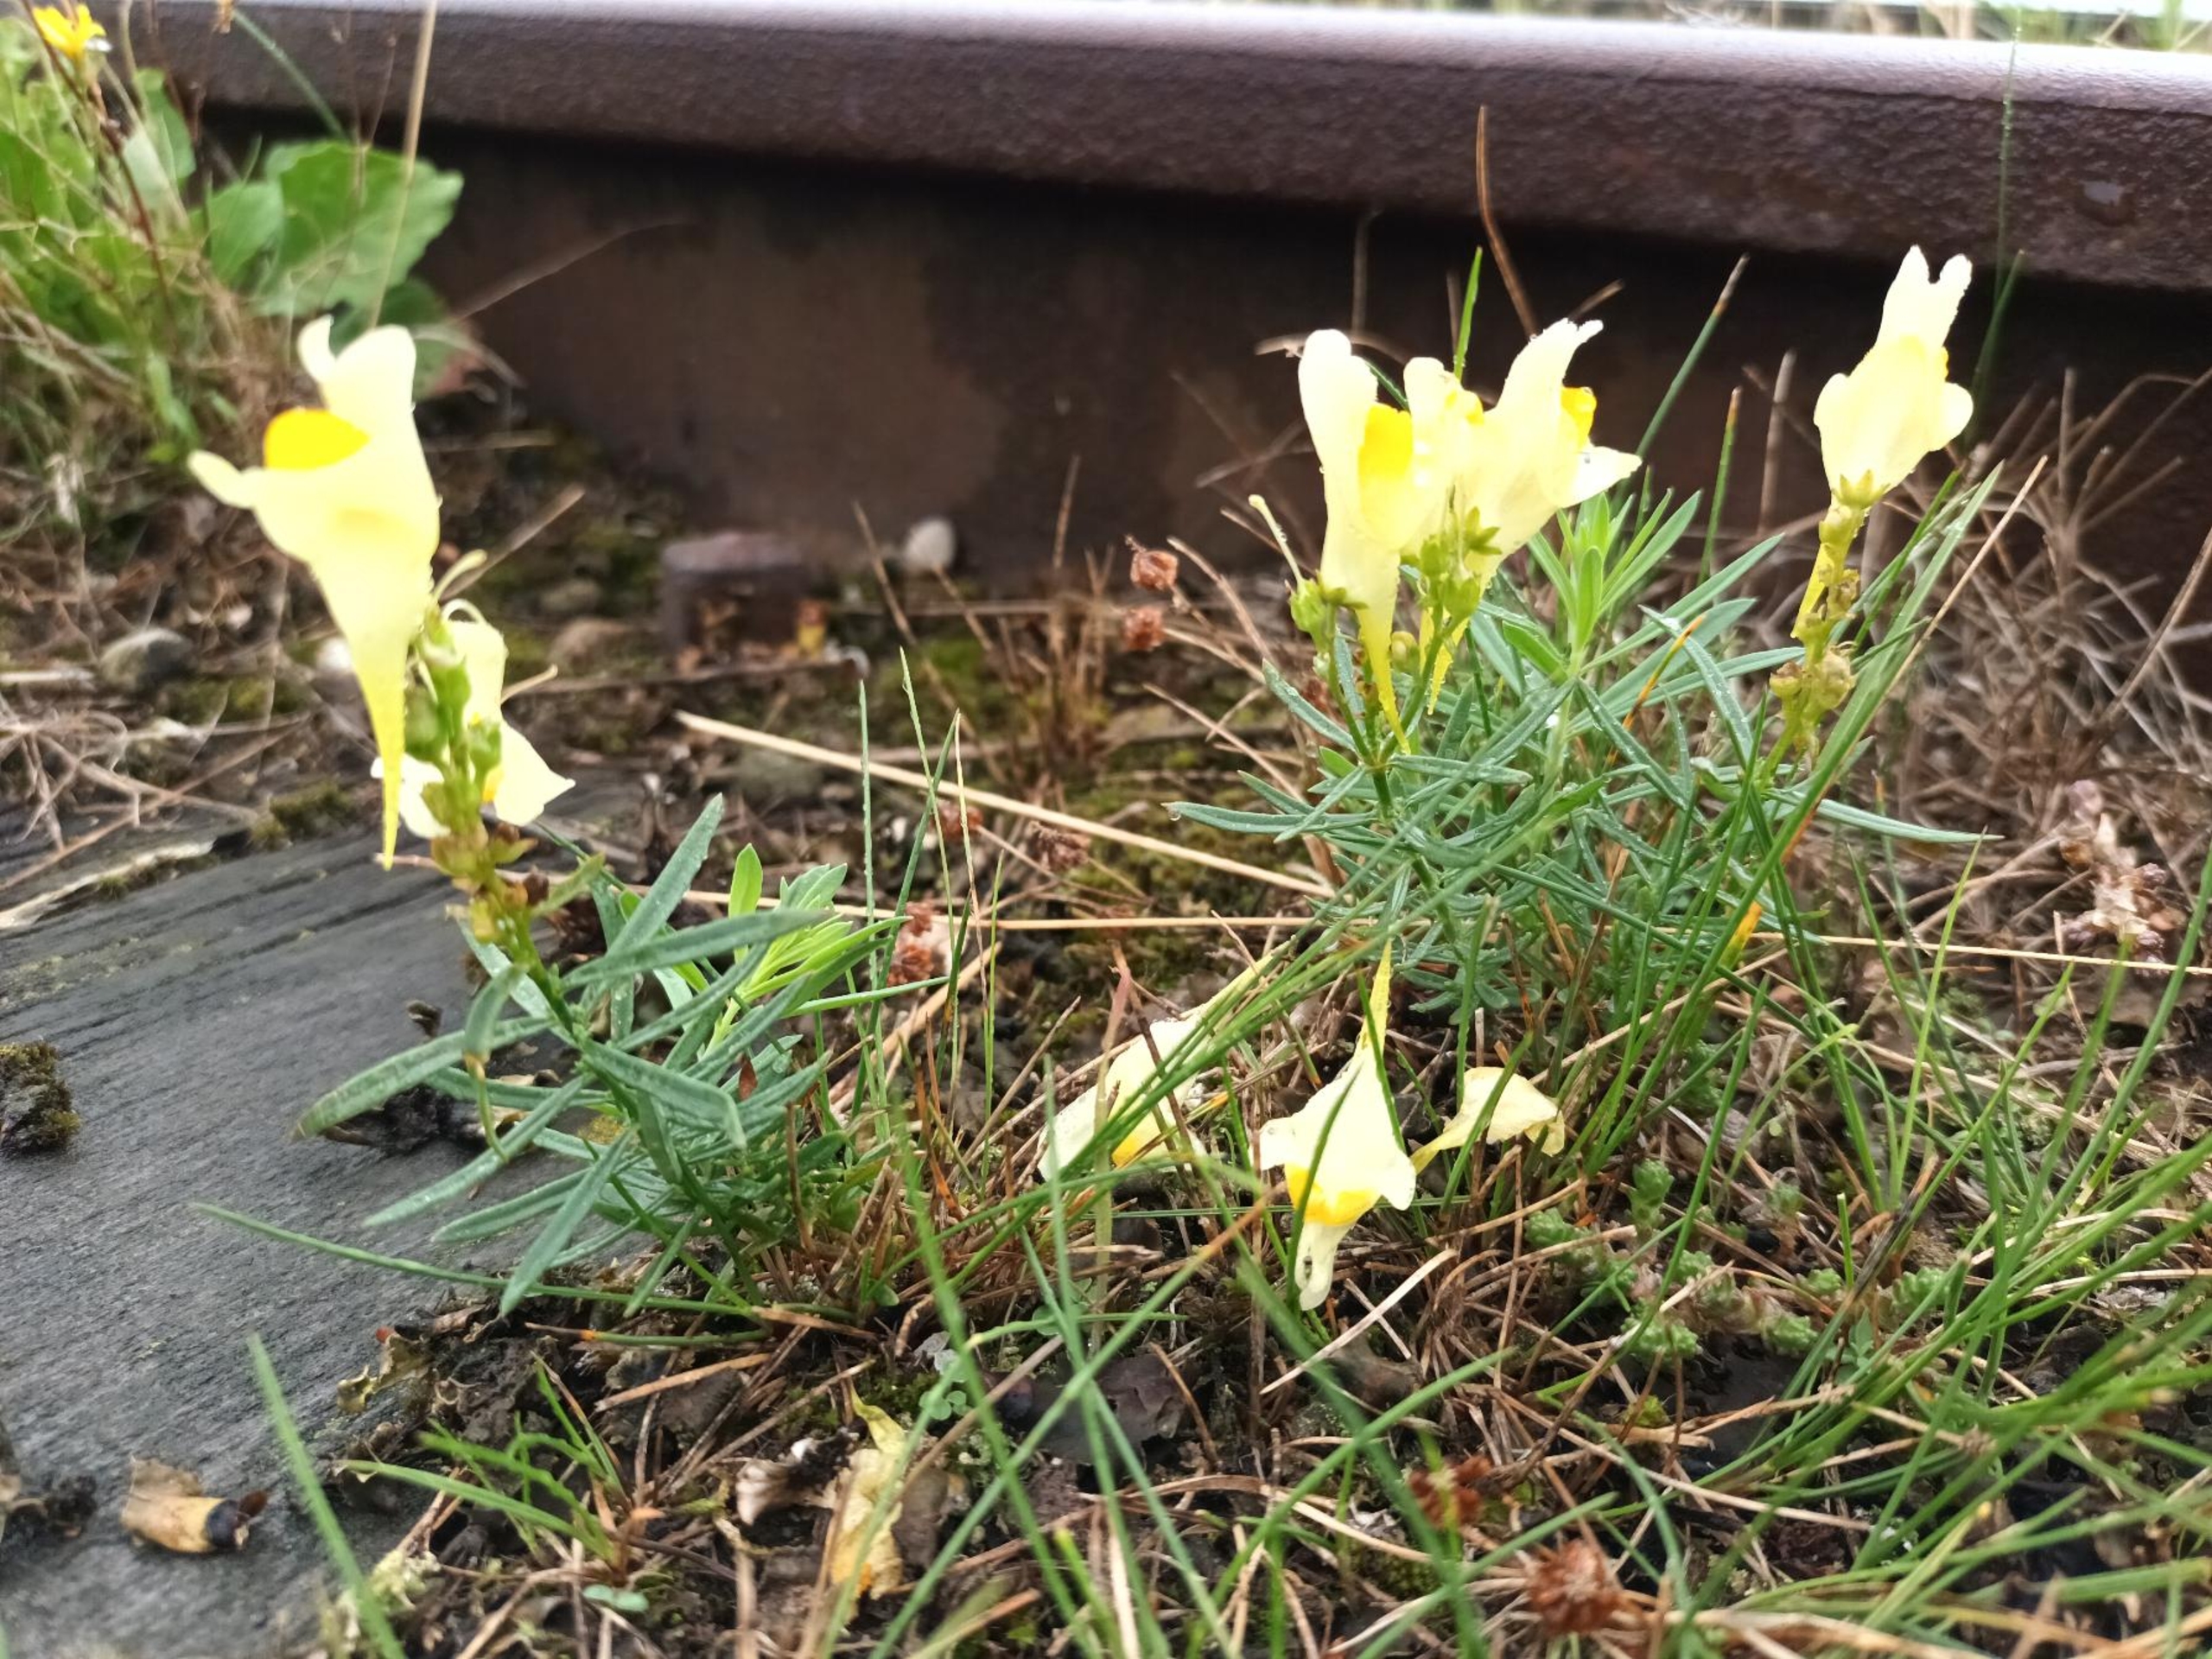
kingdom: Plantae
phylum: Tracheophyta
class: Magnoliopsida
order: Lamiales
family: Plantaginaceae
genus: Linaria
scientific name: Linaria vulgaris
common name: Almindelig torskemund
